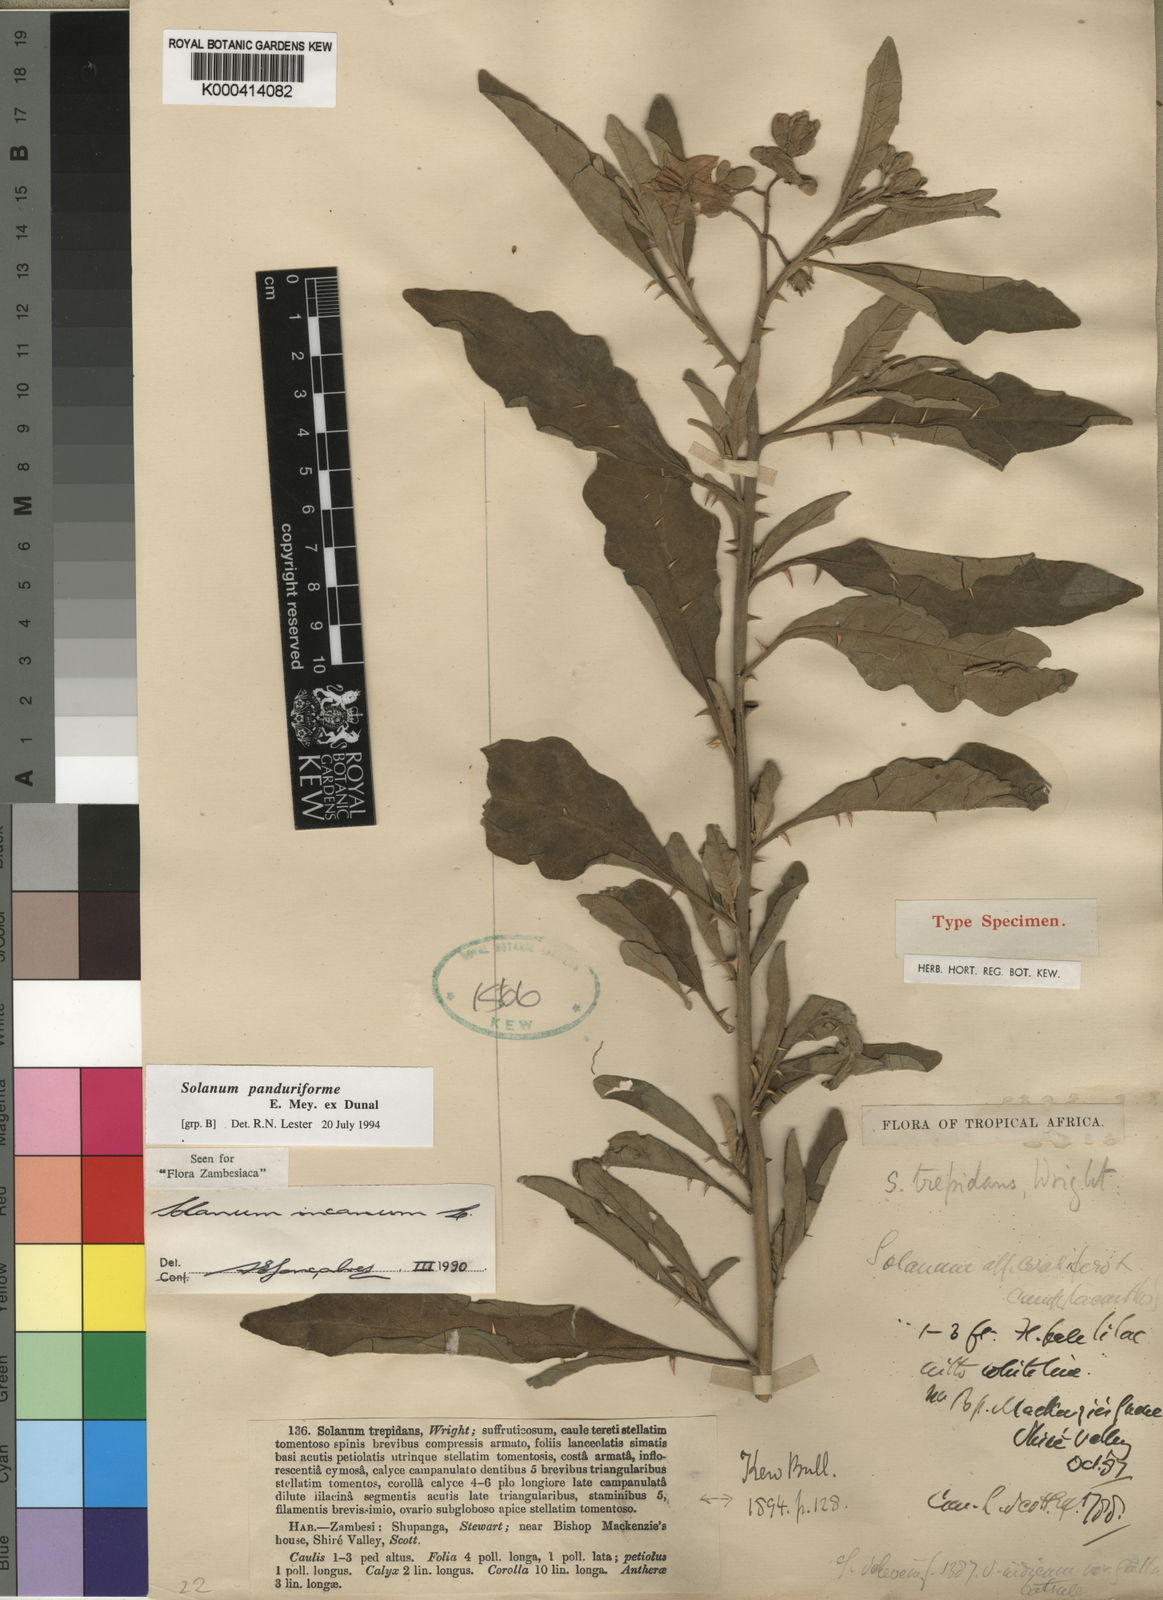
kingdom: Plantae
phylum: Tracheophyta
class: Magnoliopsida
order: Solanales
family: Solanaceae
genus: Solanum
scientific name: Solanum incanum
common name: Bitter apple
